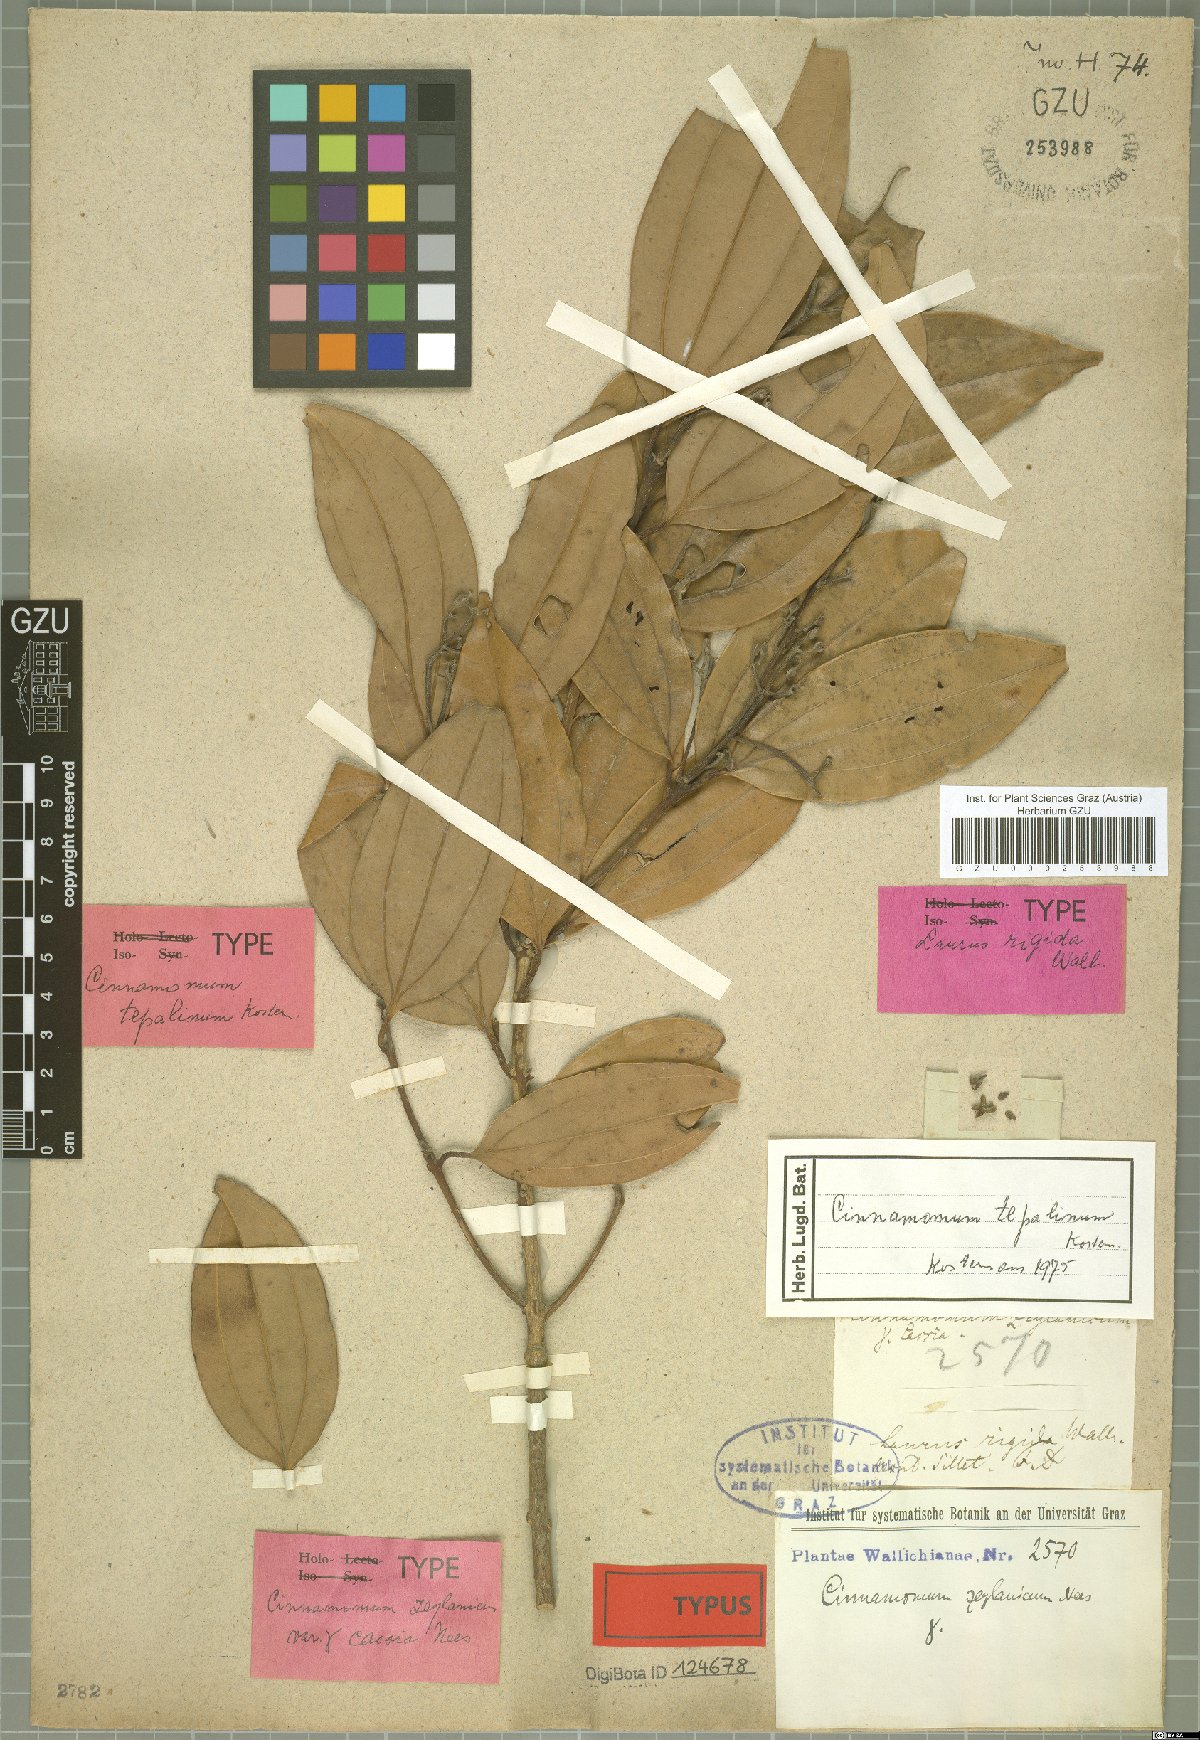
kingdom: Plantae
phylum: Tracheophyta
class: Magnoliopsida
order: Laurales
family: Lauraceae
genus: Cinnamomum
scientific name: Cinnamomum verum
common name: Cinnamon
